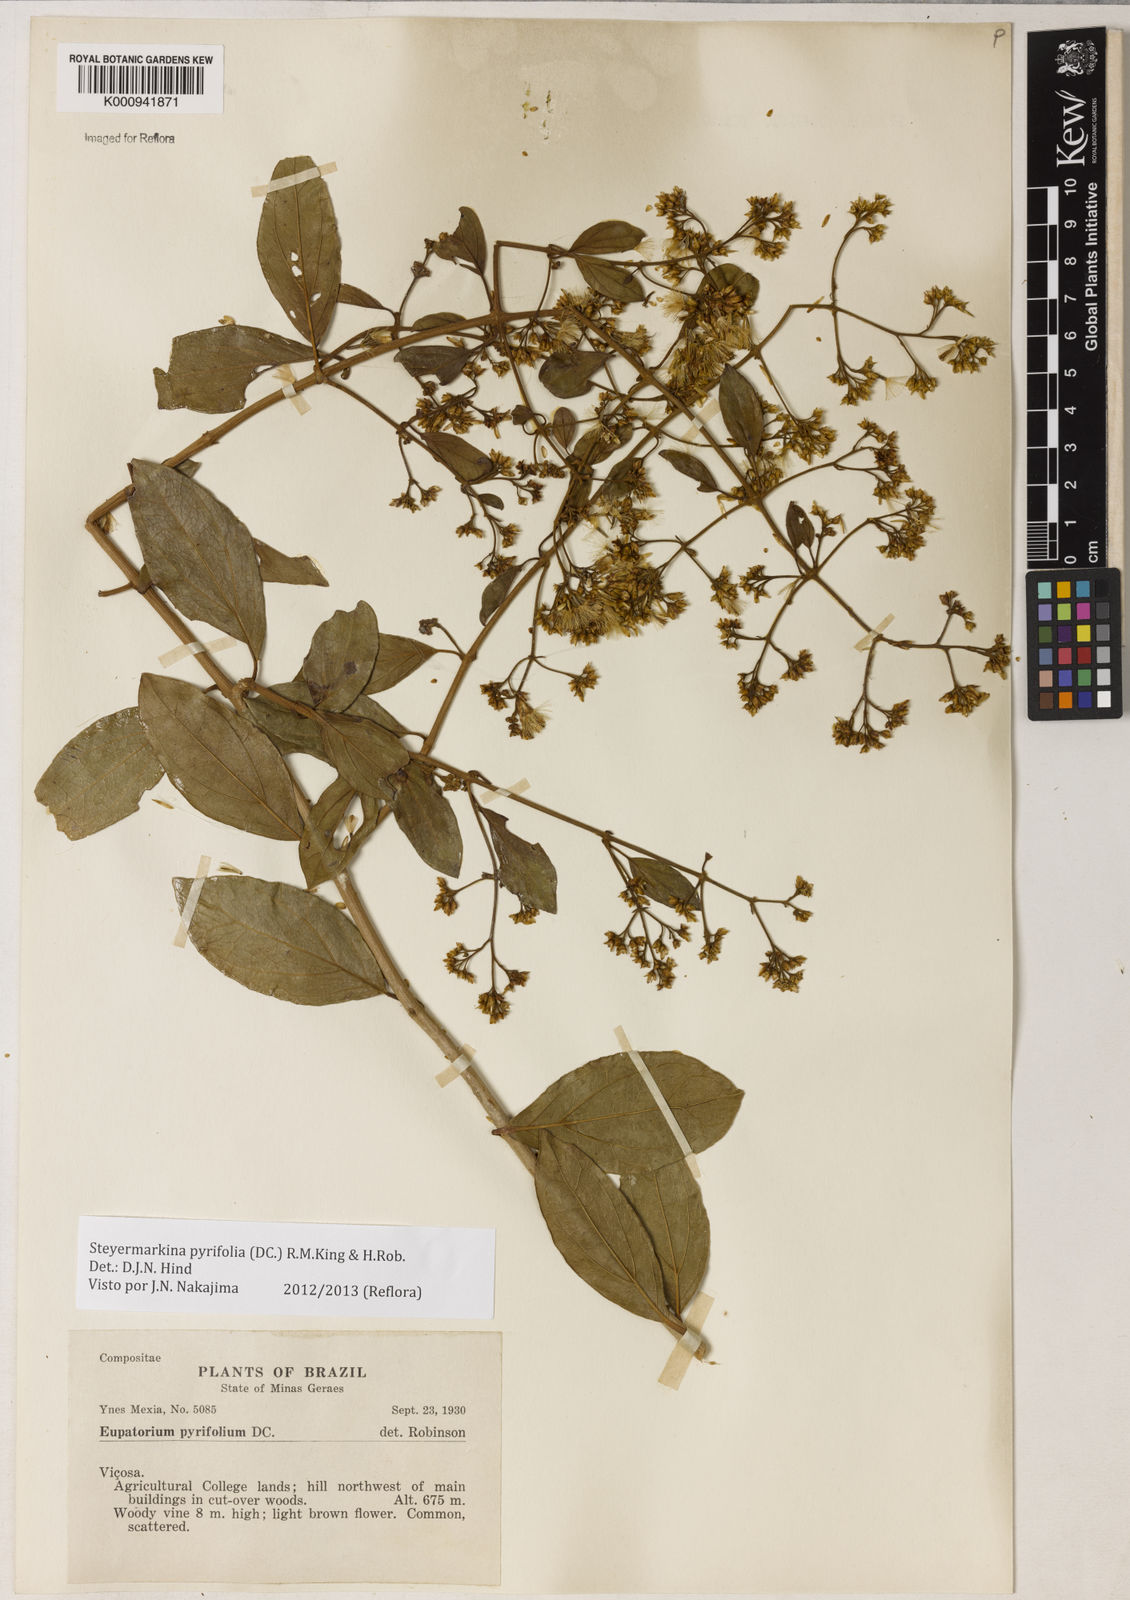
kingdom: Plantae
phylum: Tracheophyta
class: Magnoliopsida
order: Asterales
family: Asteraceae
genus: Steyermarkina
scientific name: Steyermarkina pyrifolia
